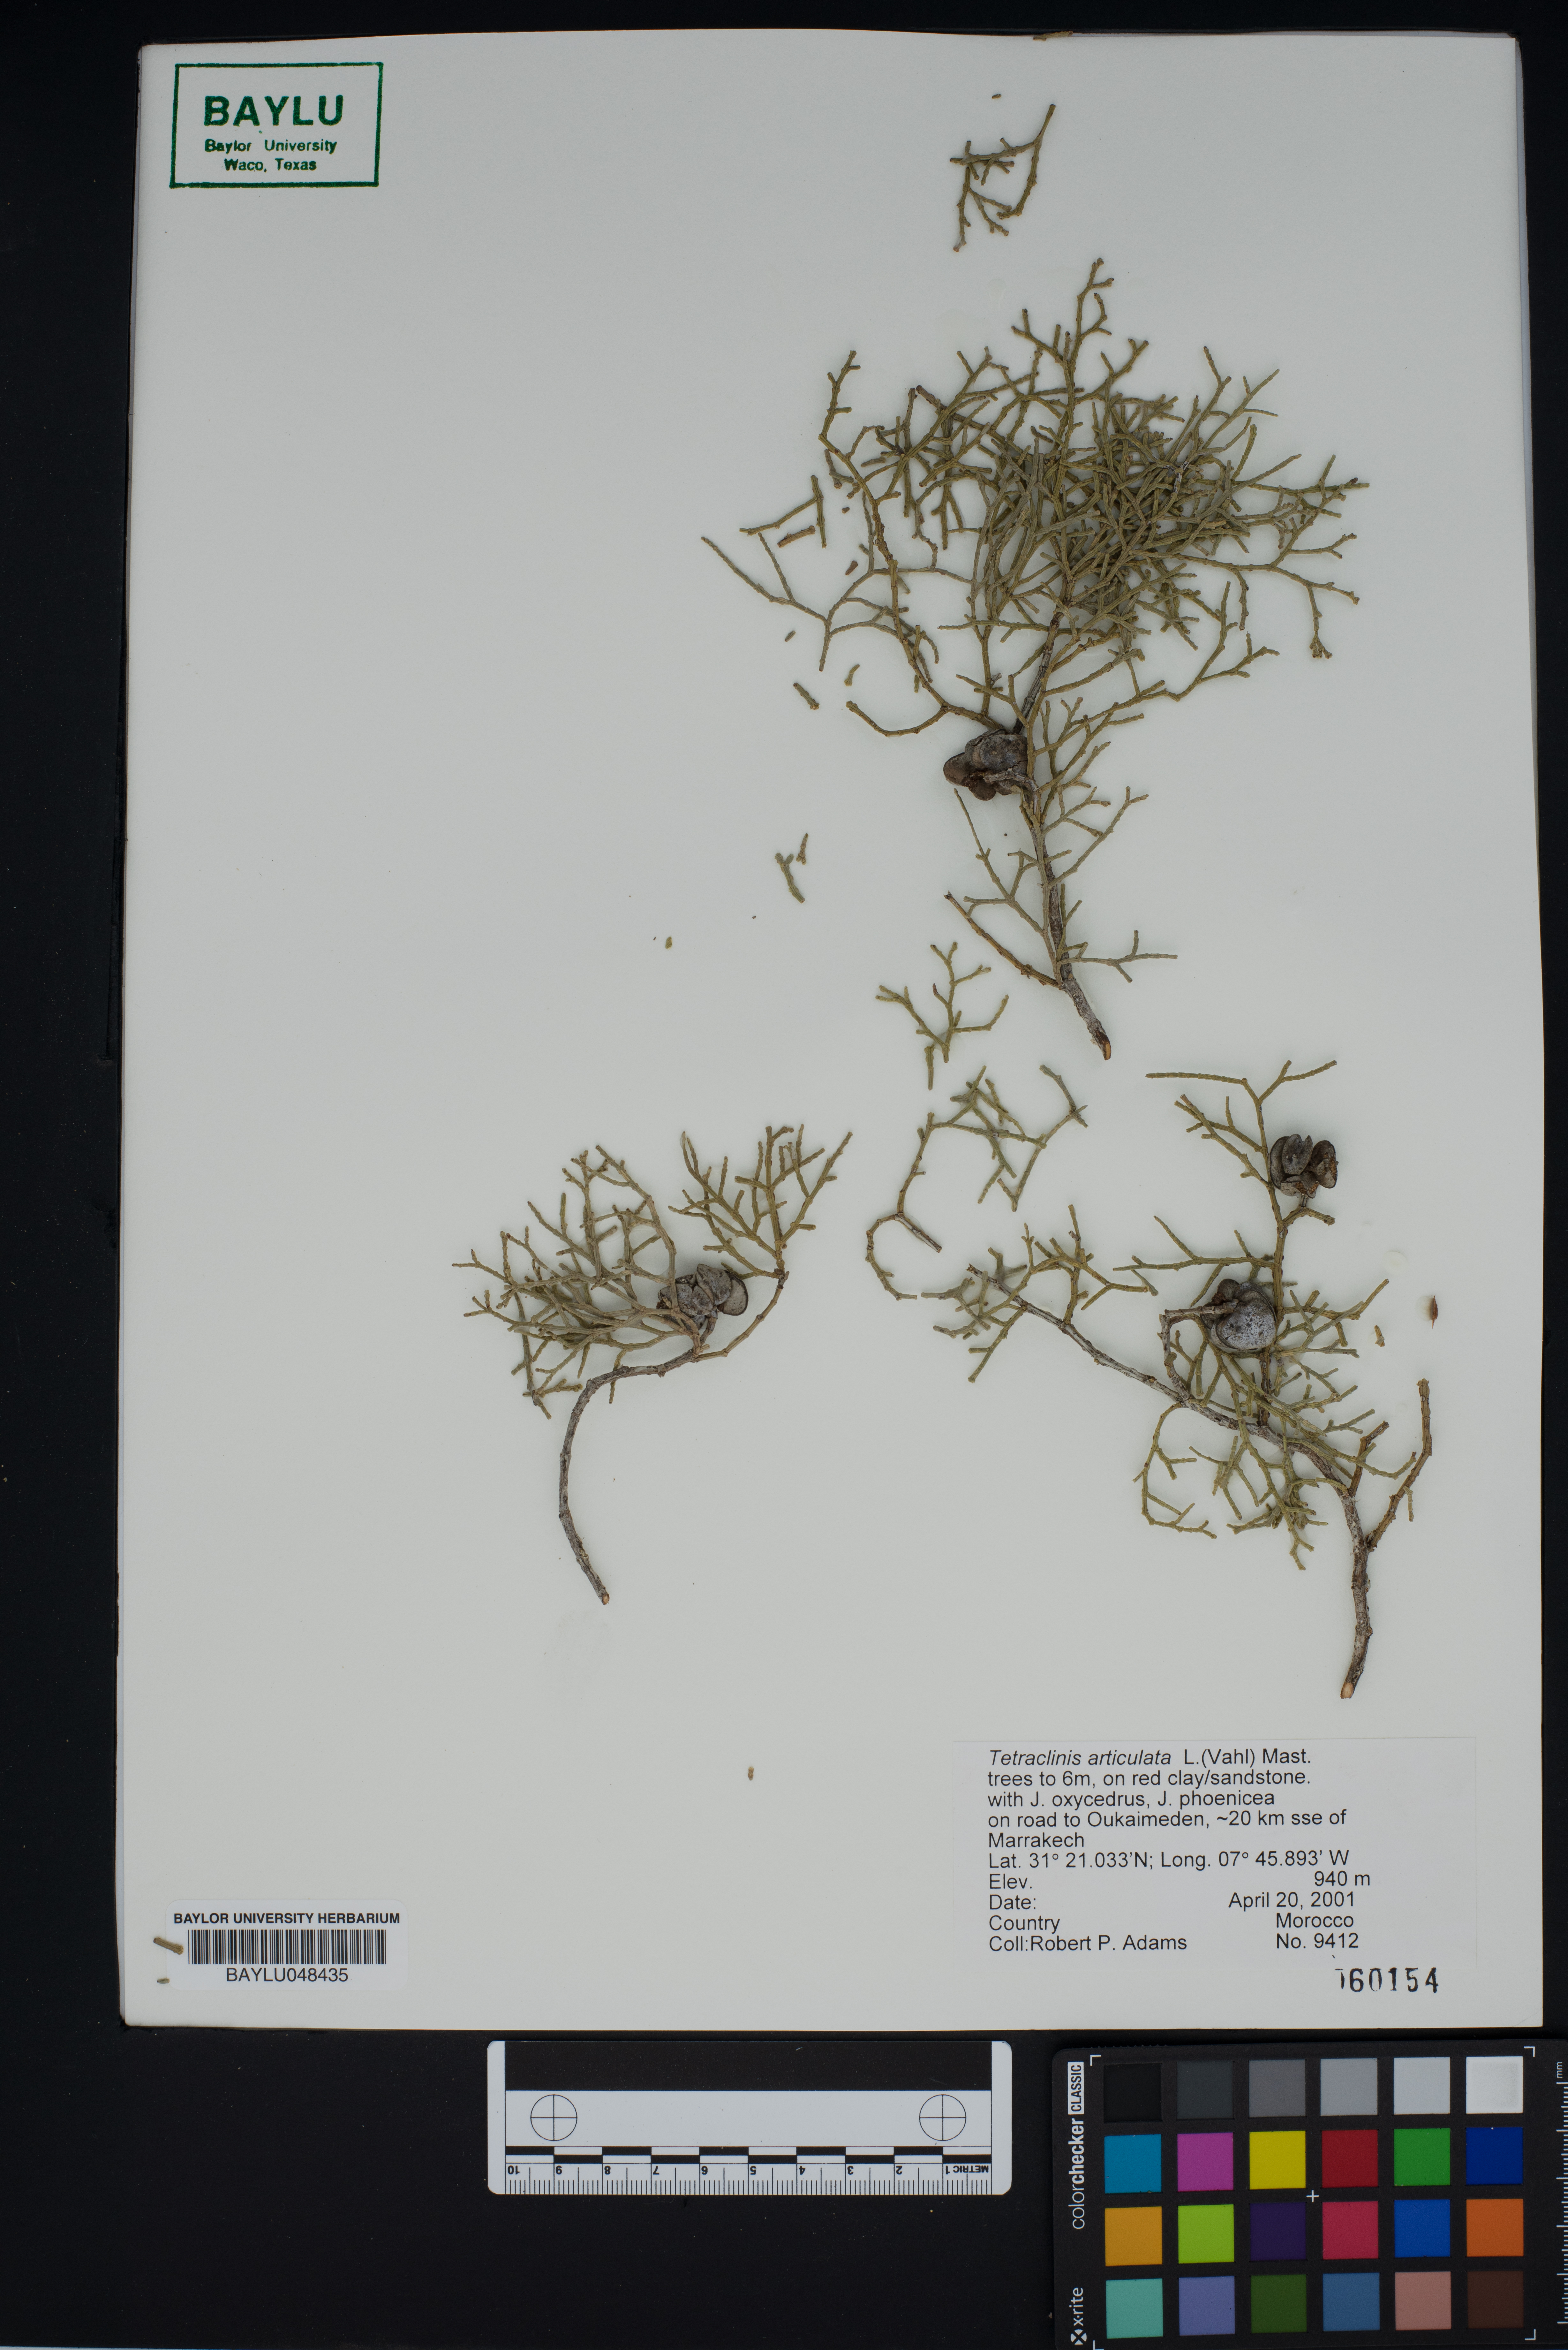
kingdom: Plantae
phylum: Tracheophyta
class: Pinopsida
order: Pinales
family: Cupressaceae
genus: Tetraclinis
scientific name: Tetraclinis articulata
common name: Sandarac
